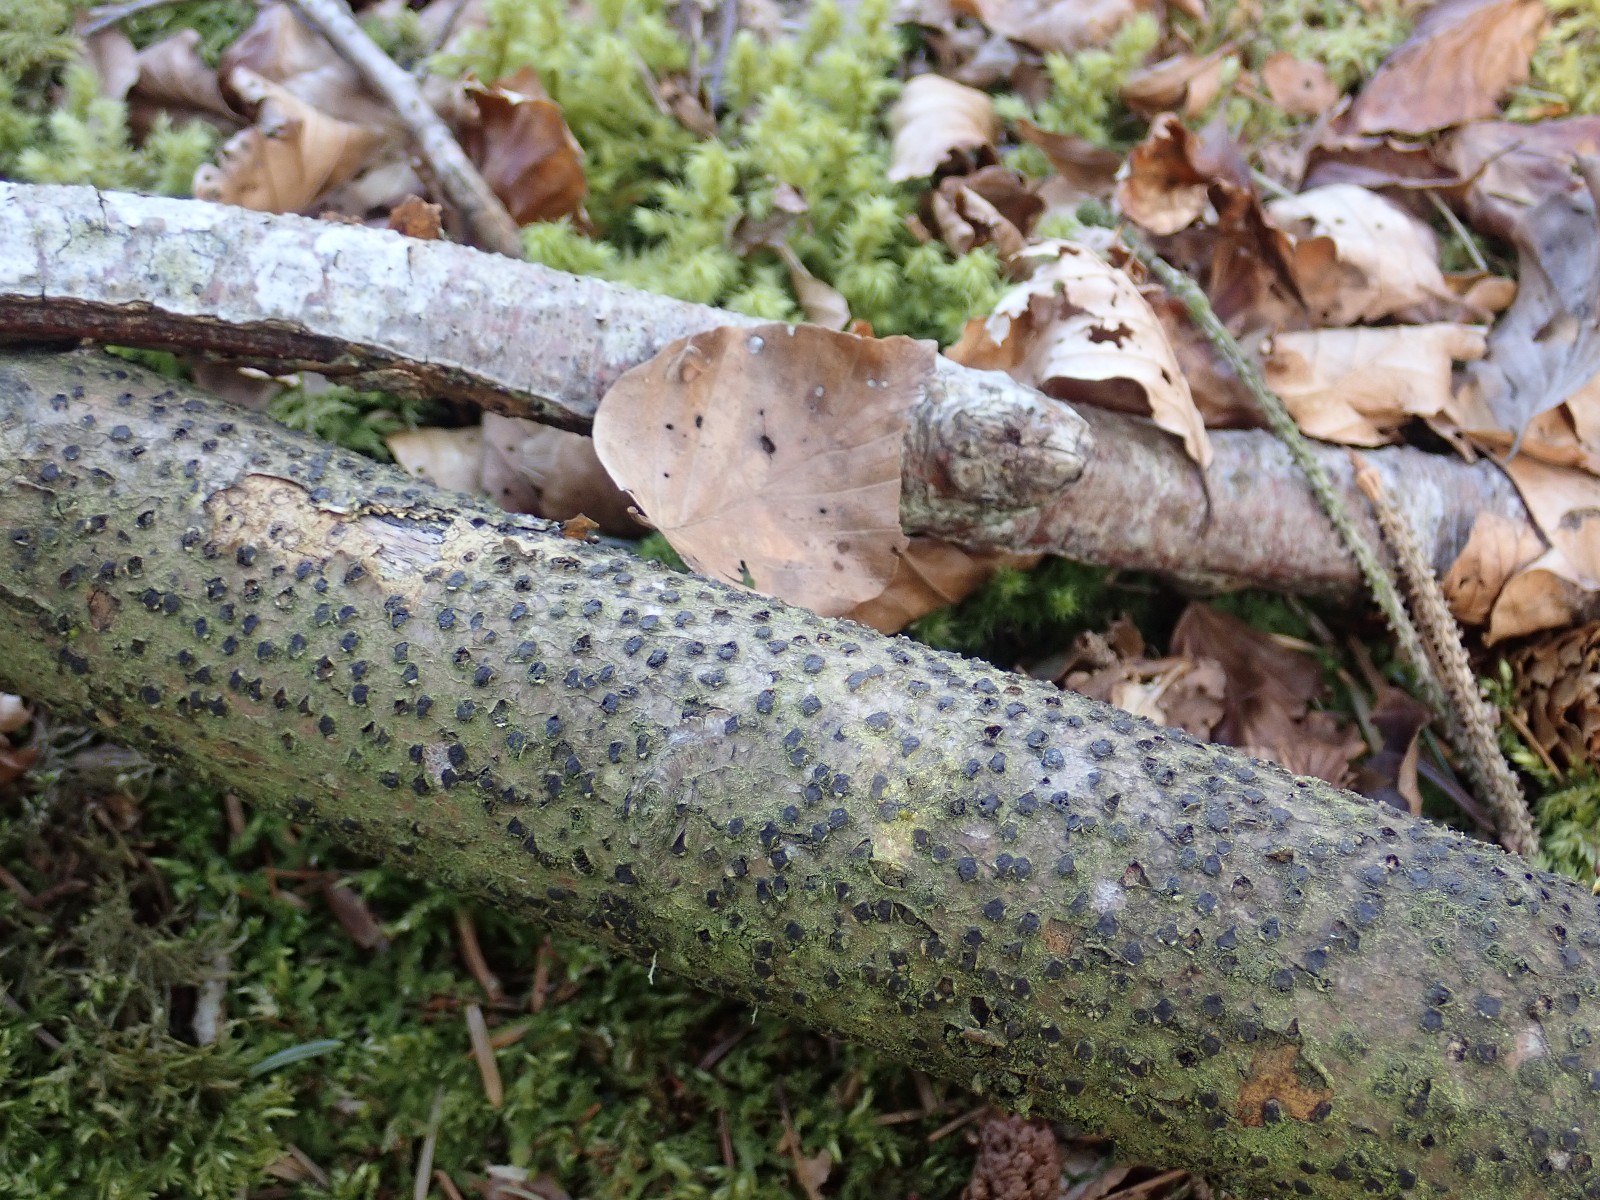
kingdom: Fungi
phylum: Ascomycota
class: Sordariomycetes
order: Xylariales
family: Diatrypaceae
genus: Diatrype
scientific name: Diatrype disciformis
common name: kant-kulskorpe
